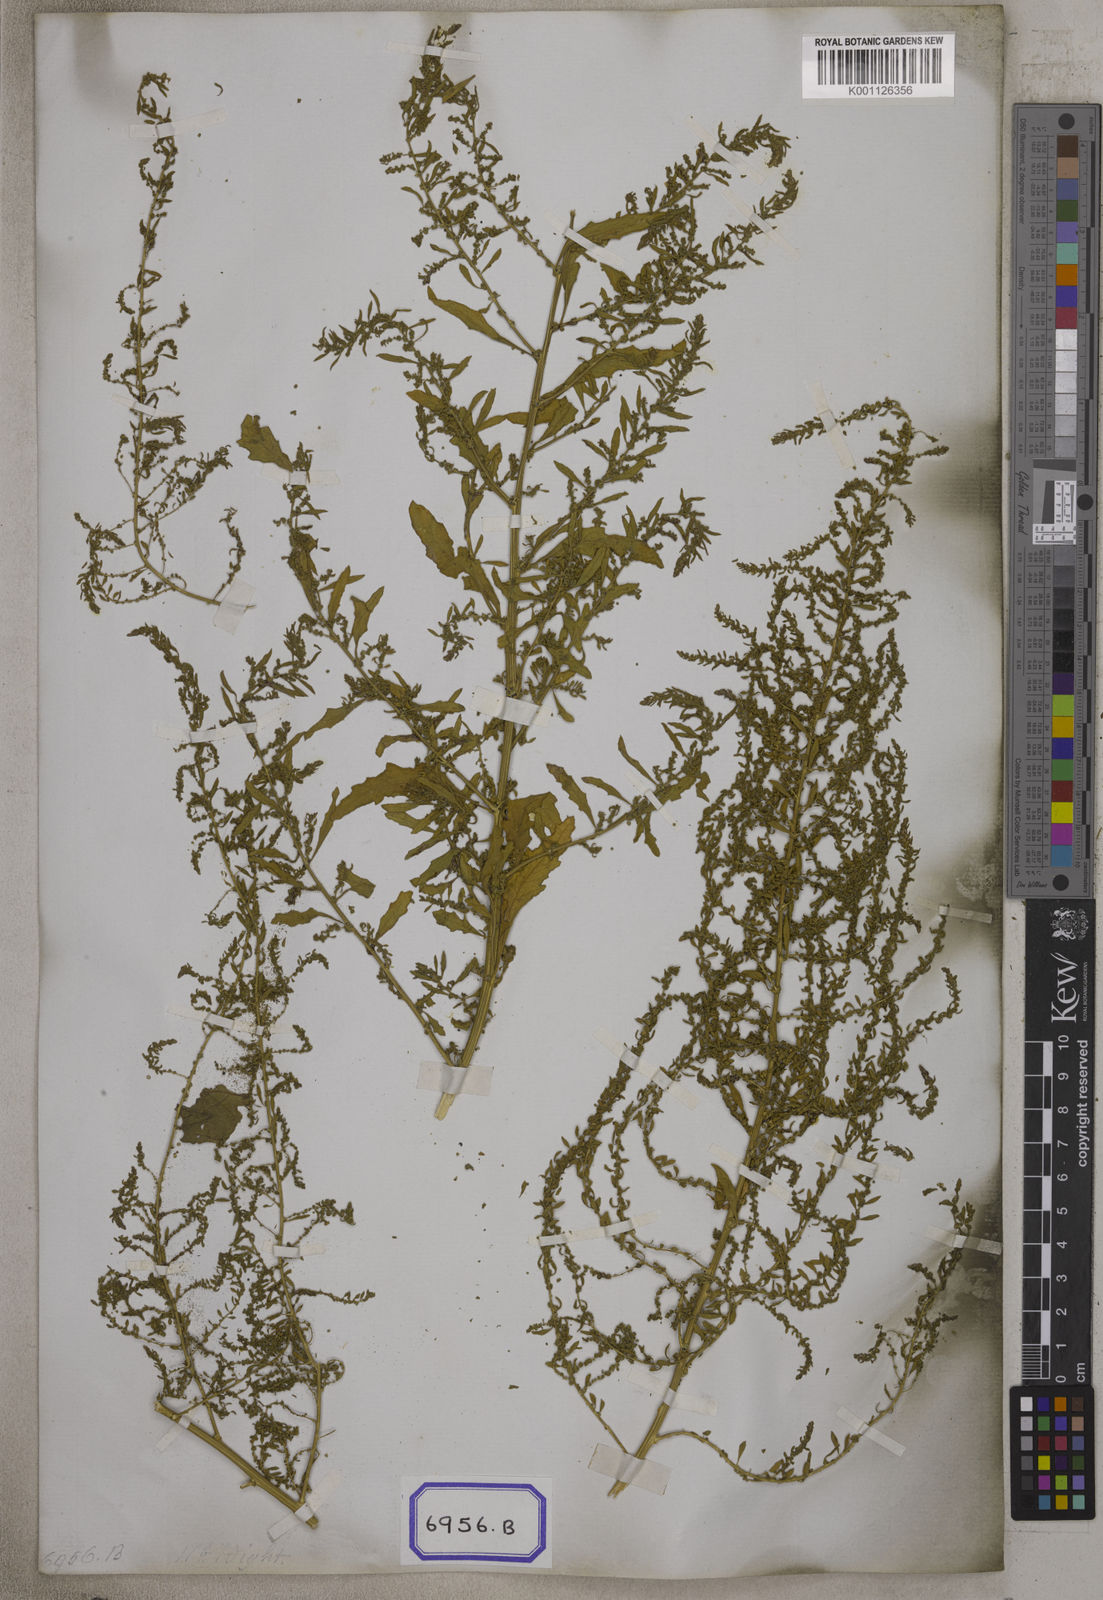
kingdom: Plantae
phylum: Tracheophyta
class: Magnoliopsida
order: Caryophyllales
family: Amaranthaceae
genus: Dysphania
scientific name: Dysphania ambrosioides
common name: Wormseed
